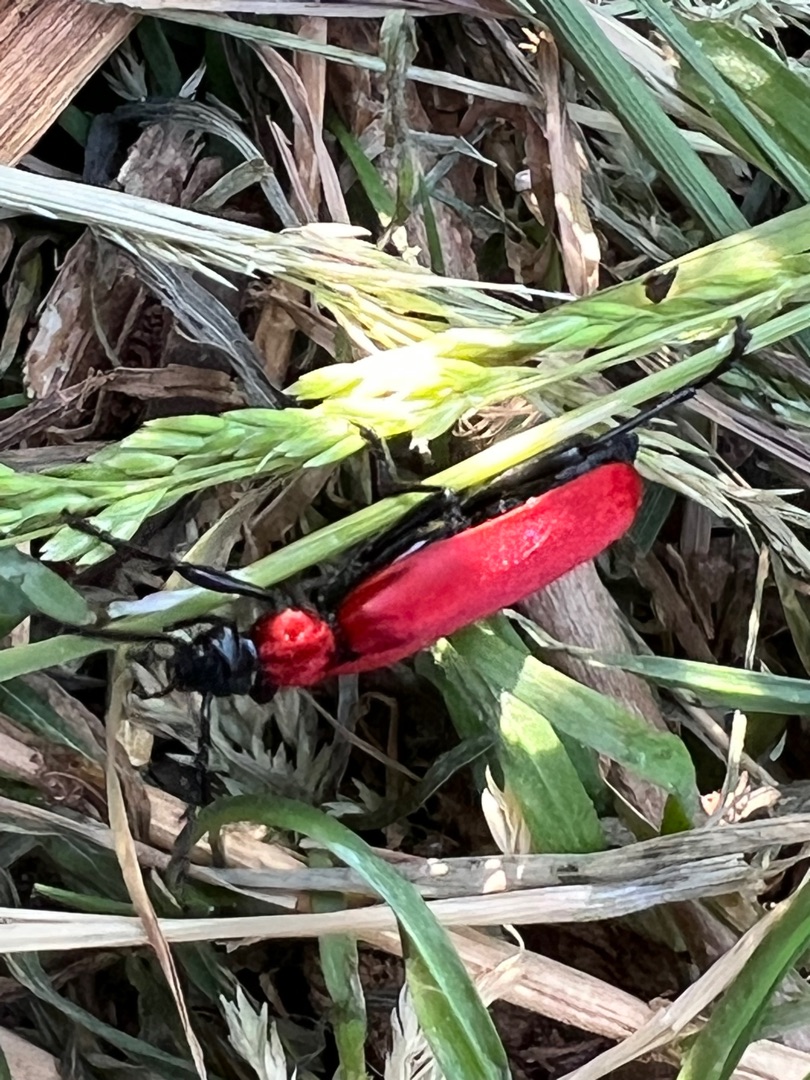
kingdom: Animalia
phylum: Arthropoda
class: Insecta
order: Coleoptera
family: Pyrochroidae
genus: Pyrochroa
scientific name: Pyrochroa coccinea
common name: Sorthovedet kardinalbille
